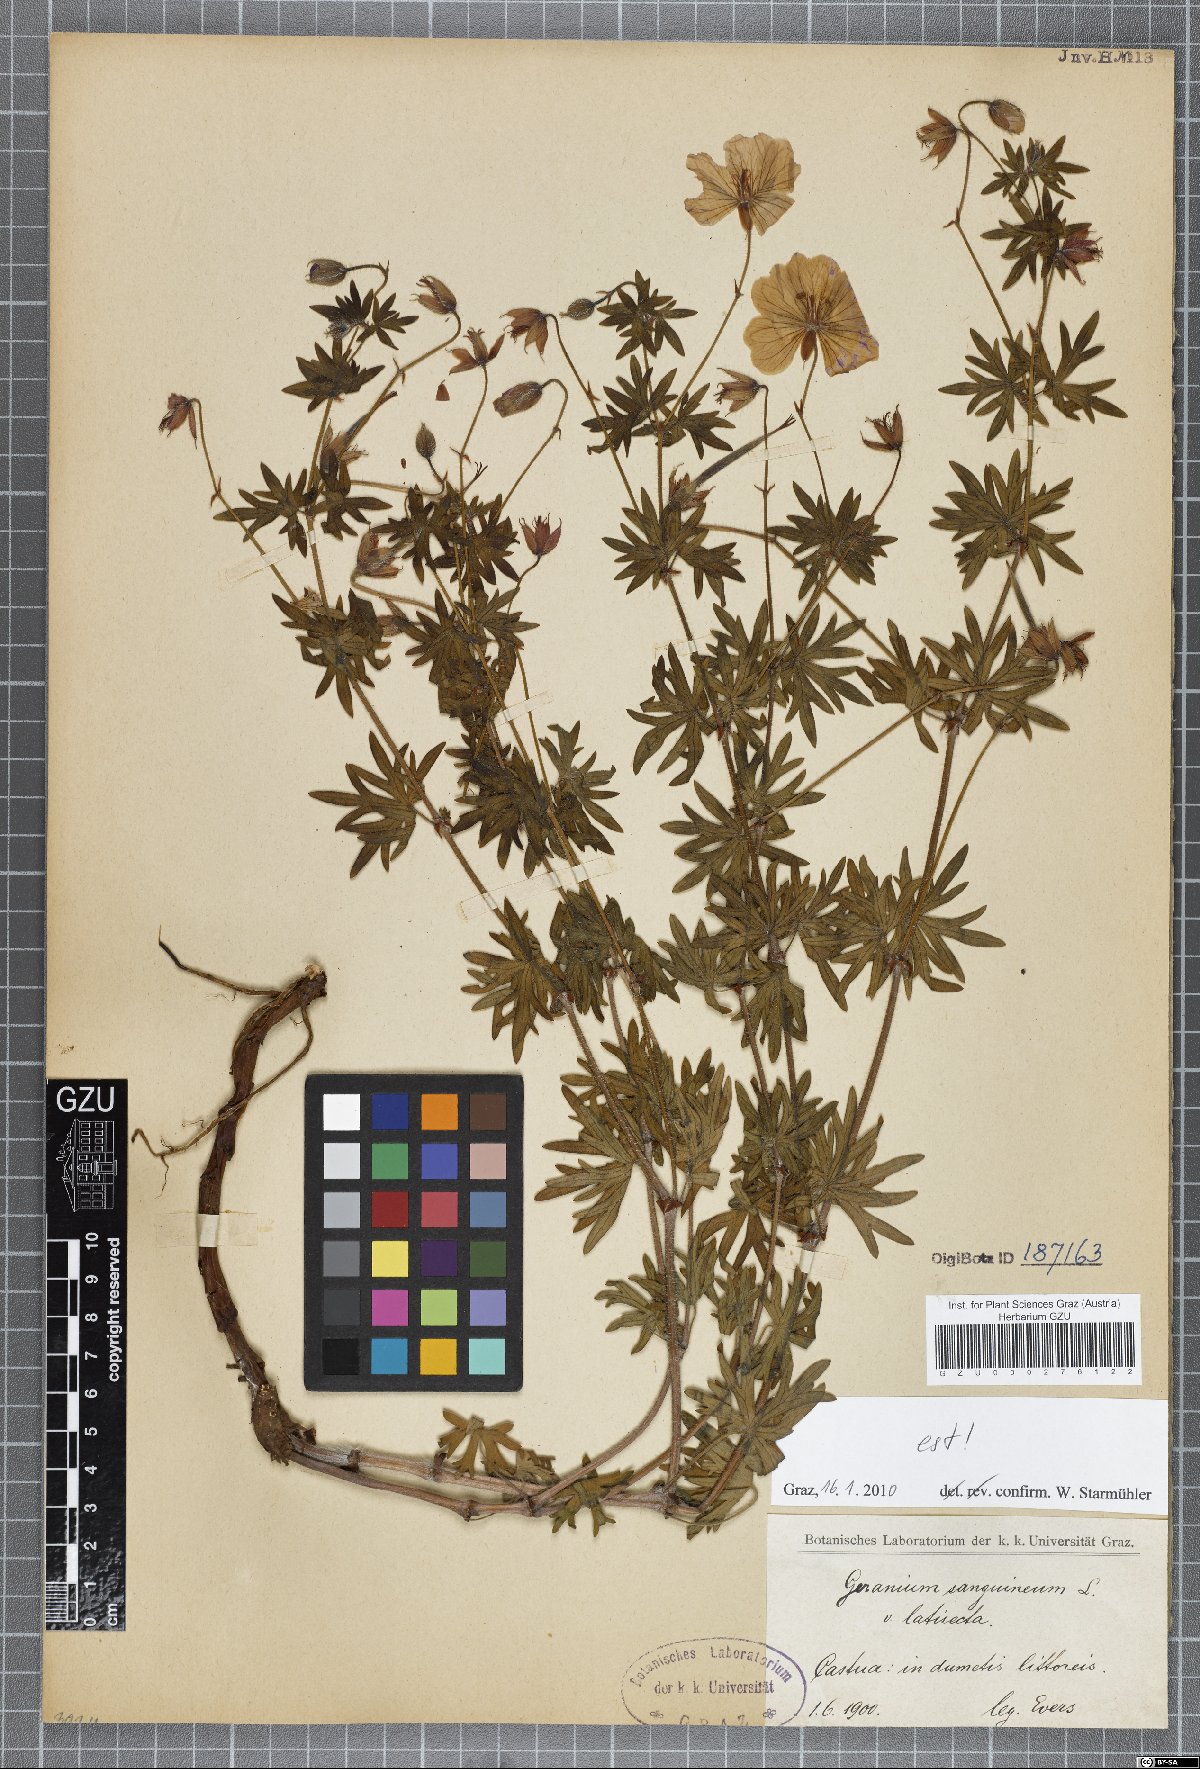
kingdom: Plantae
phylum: Tracheophyta
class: Magnoliopsida
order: Geraniales
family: Geraniaceae
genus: Geranium
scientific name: Geranium sanguineum
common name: Bloody crane's-bill
